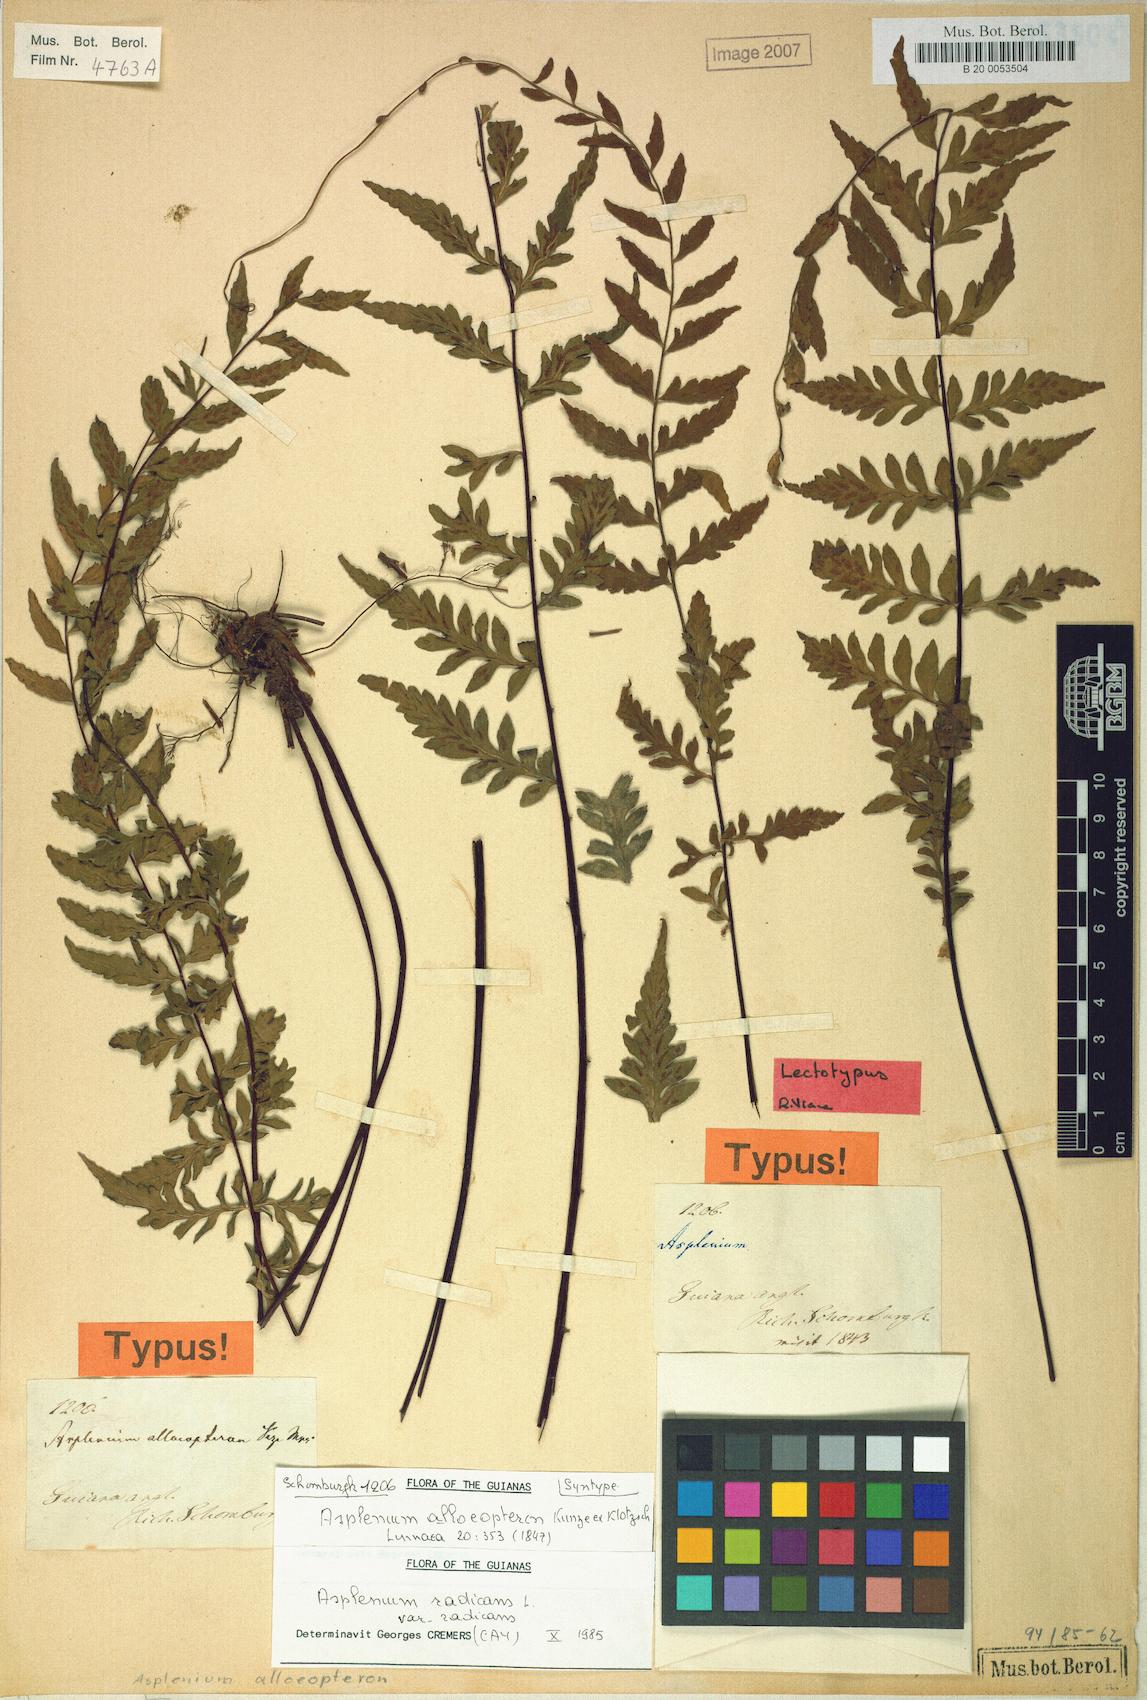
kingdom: Plantae
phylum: Tracheophyta
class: Polypodiopsida
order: Polypodiales
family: Aspleniaceae
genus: Asplenium
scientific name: Asplenium radicans
